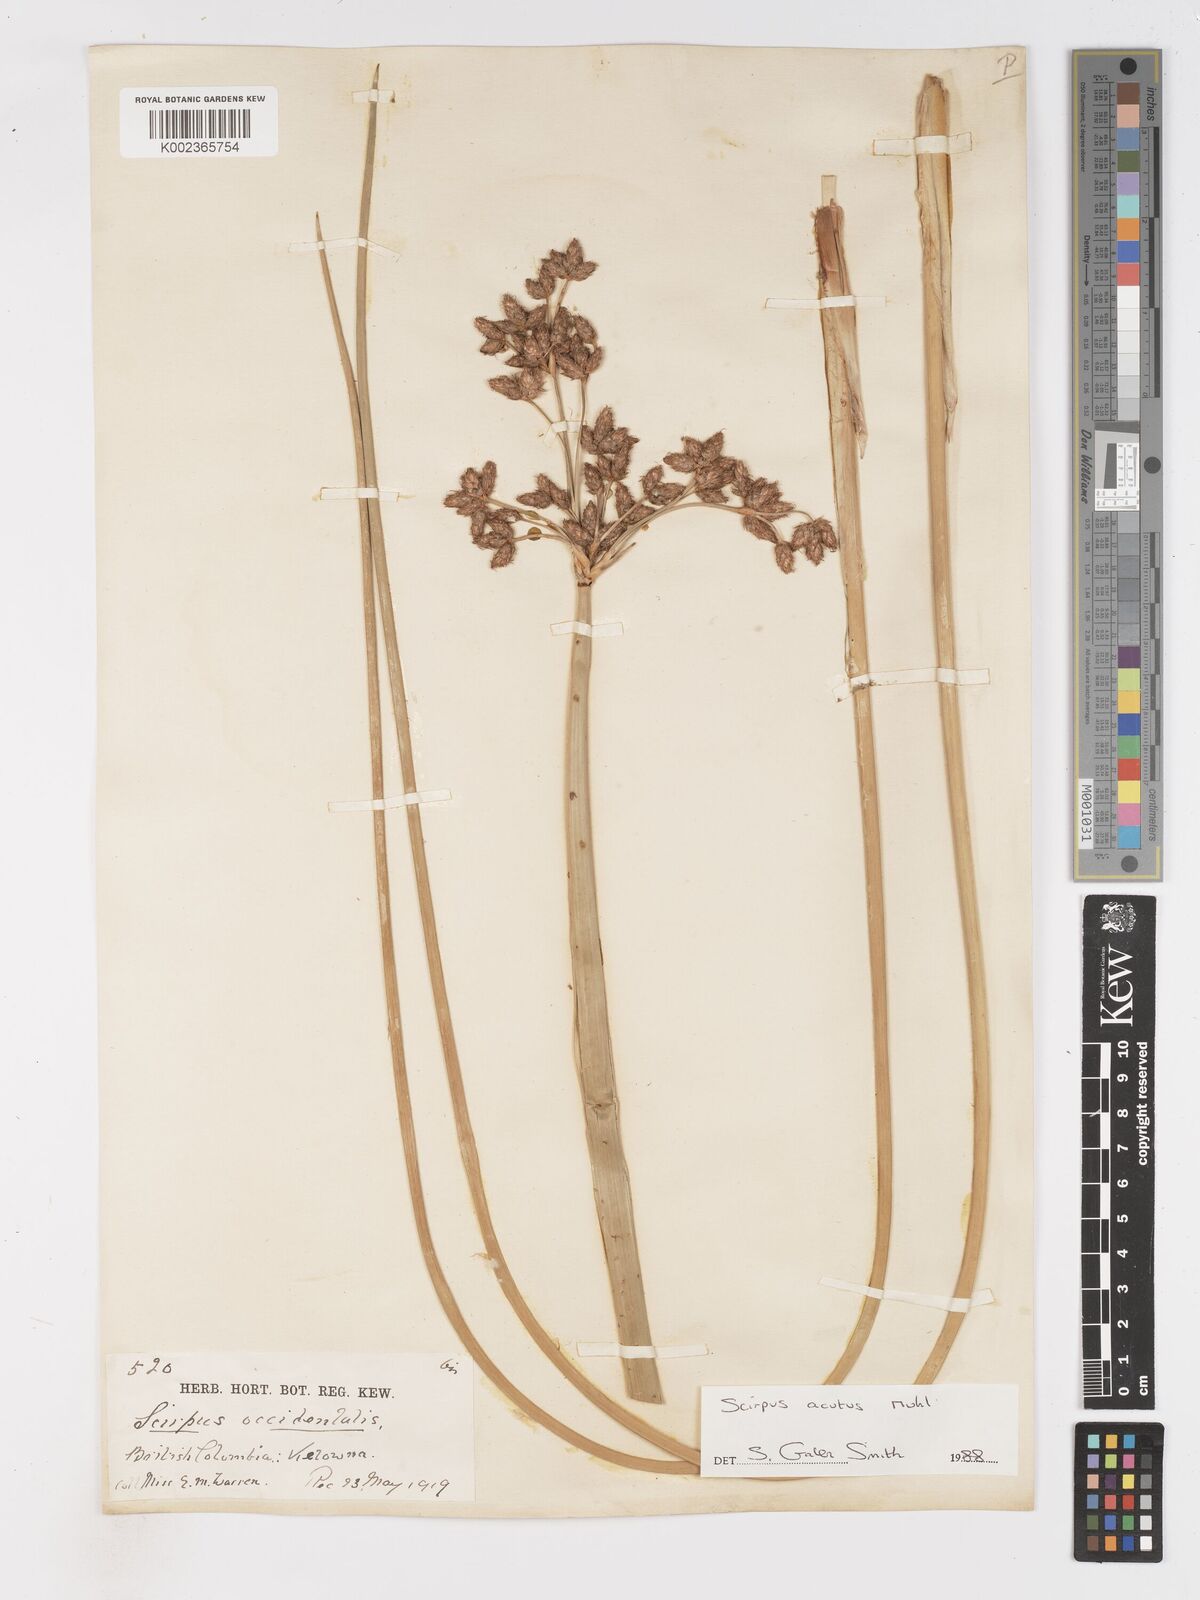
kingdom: Plantae
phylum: Tracheophyta
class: Liliopsida
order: Poales
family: Cyperaceae
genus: Schoenoplectus
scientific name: Schoenoplectus
